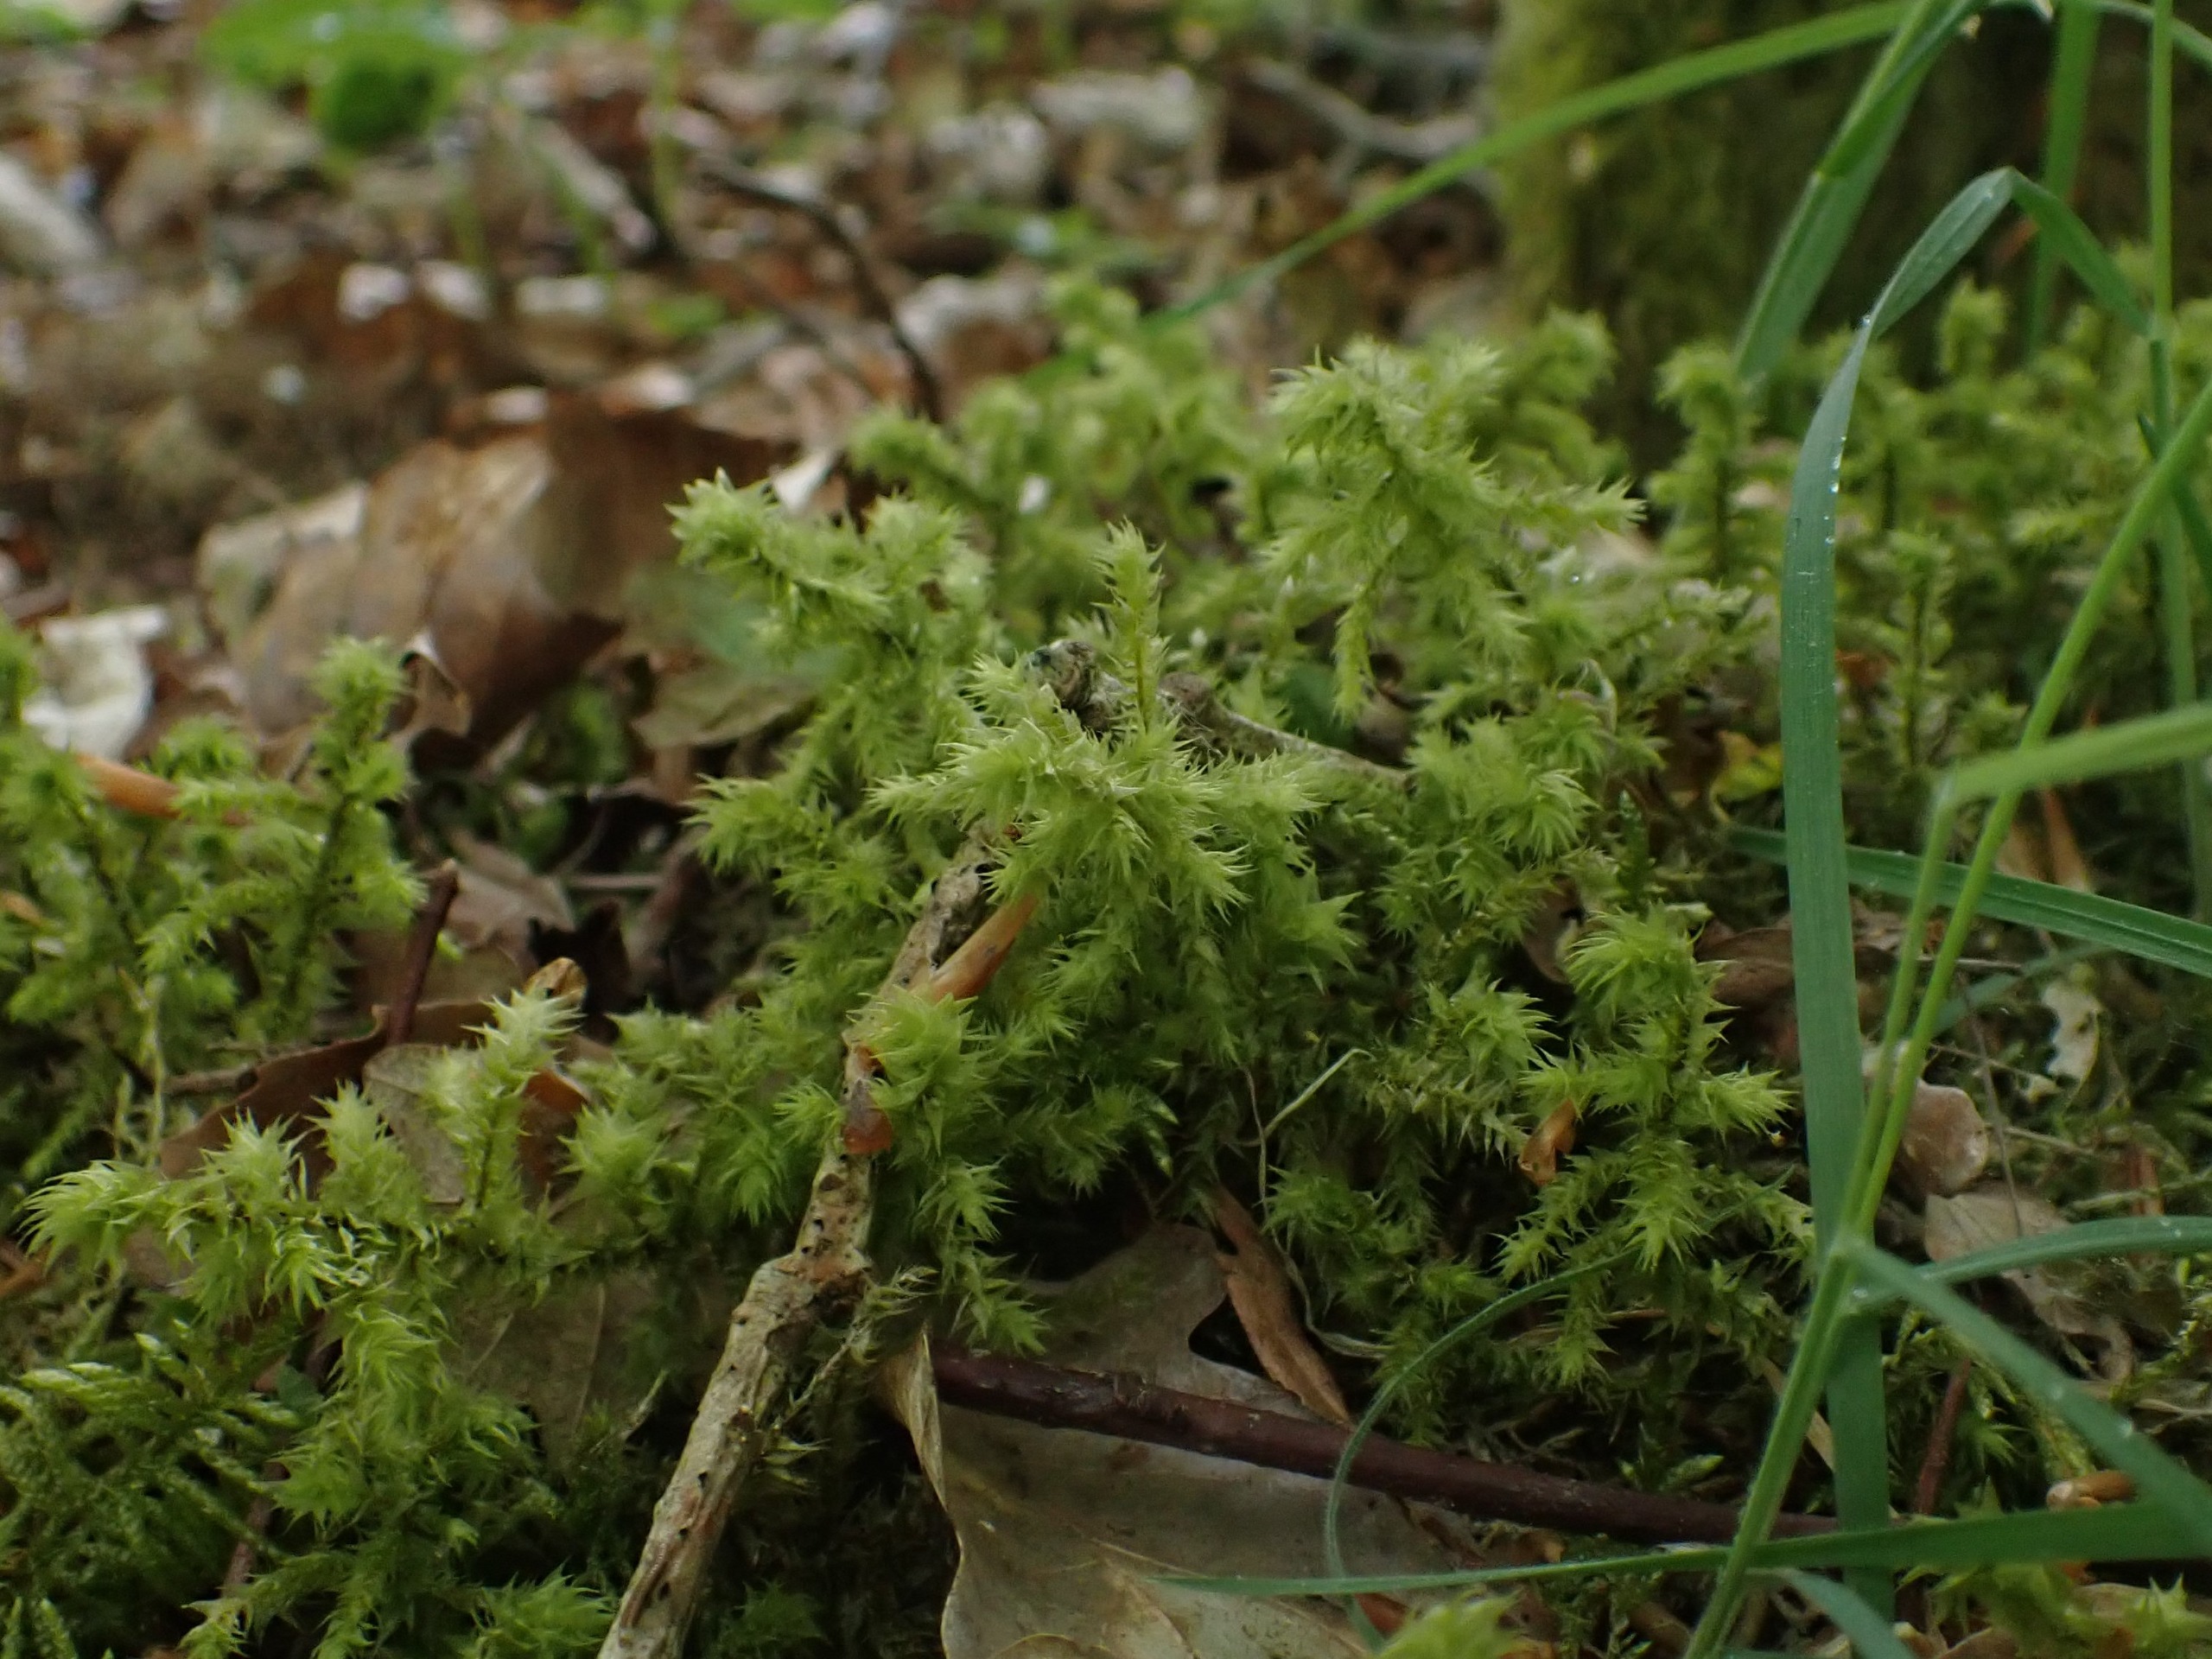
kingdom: Plantae
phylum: Bryophyta
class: Bryopsida
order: Hypnales
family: Hylocomiaceae
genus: Hylocomiadelphus
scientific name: Hylocomiadelphus triquetrus
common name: Stor kransemos
